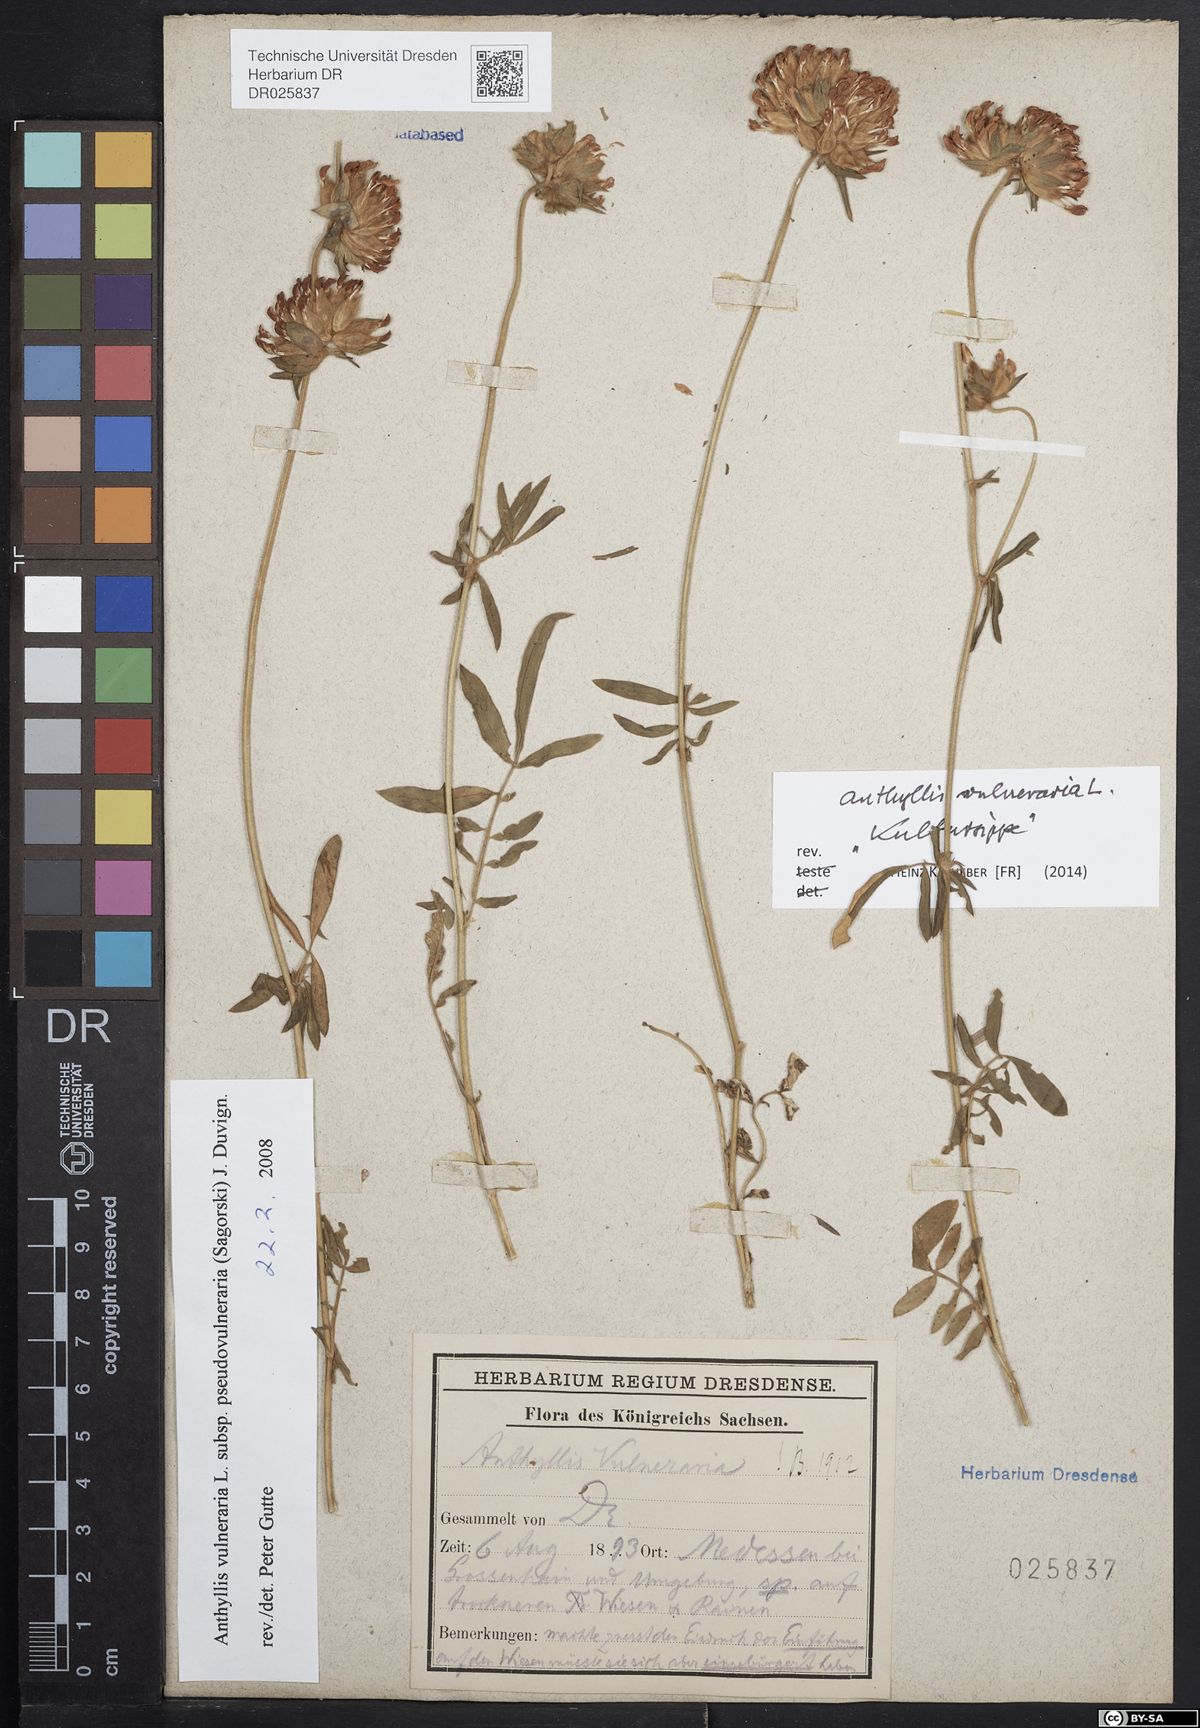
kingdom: Plantae
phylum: Tracheophyta
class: Magnoliopsida
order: Fabales
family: Fabaceae
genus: Anthyllis
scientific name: Anthyllis vulneraria
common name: Kidney vetch
